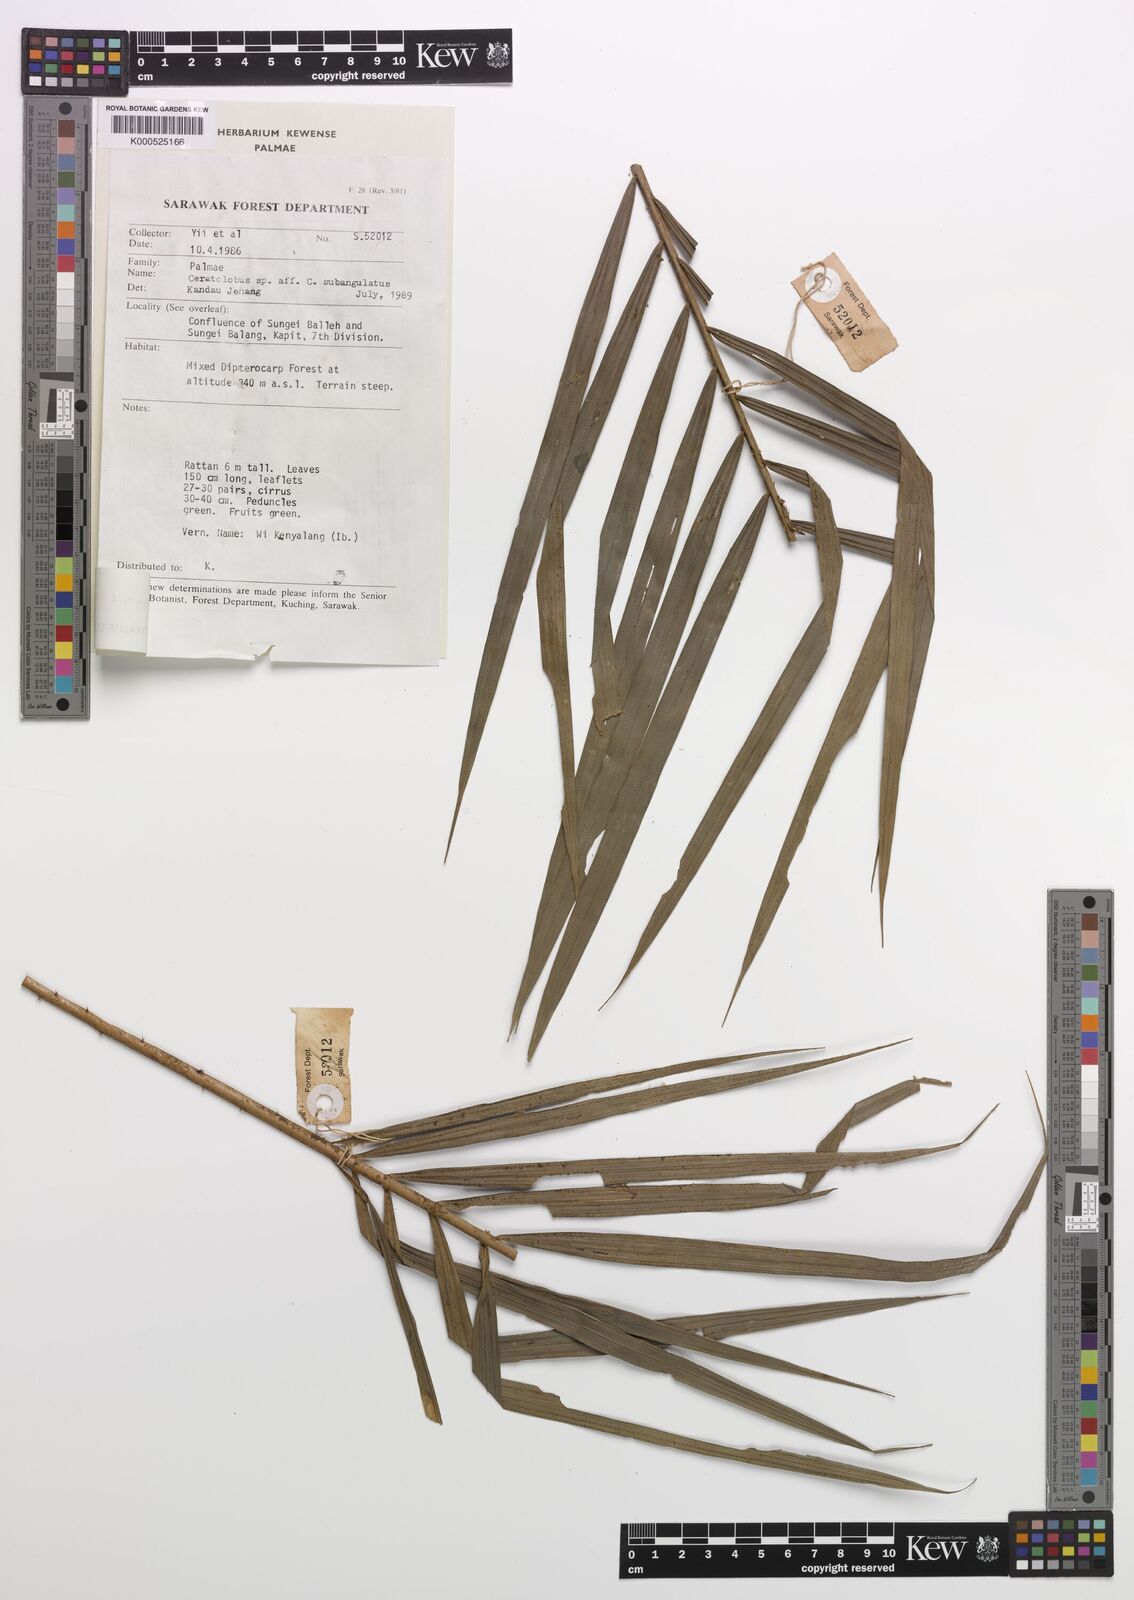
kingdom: Plantae
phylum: Tracheophyta
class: Liliopsida
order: Arecales
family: Arecaceae
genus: Calamus
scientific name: Calamus cristatus
